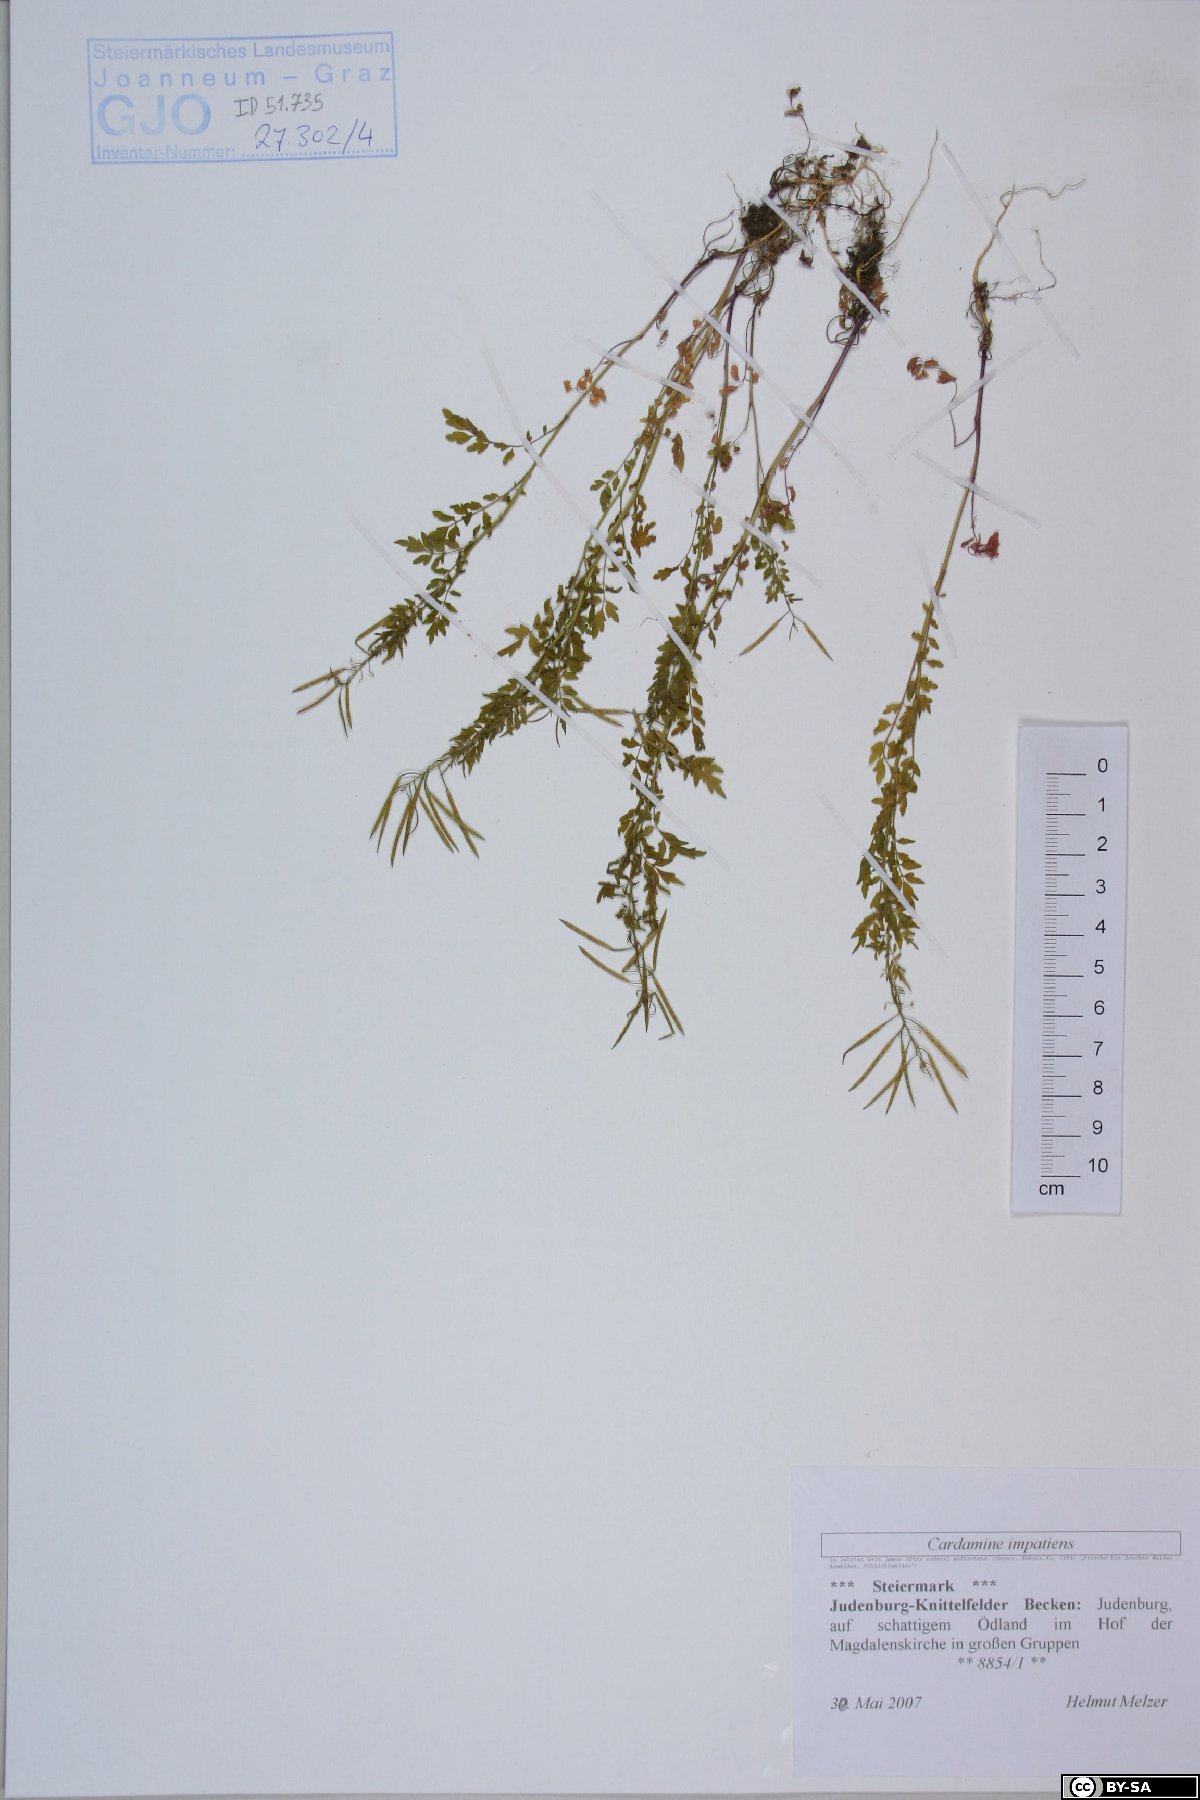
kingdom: Plantae
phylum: Tracheophyta
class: Magnoliopsida
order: Brassicales
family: Brassicaceae
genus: Cardamine
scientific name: Cardamine impatiens
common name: Narrow-leaved bitter-cress
